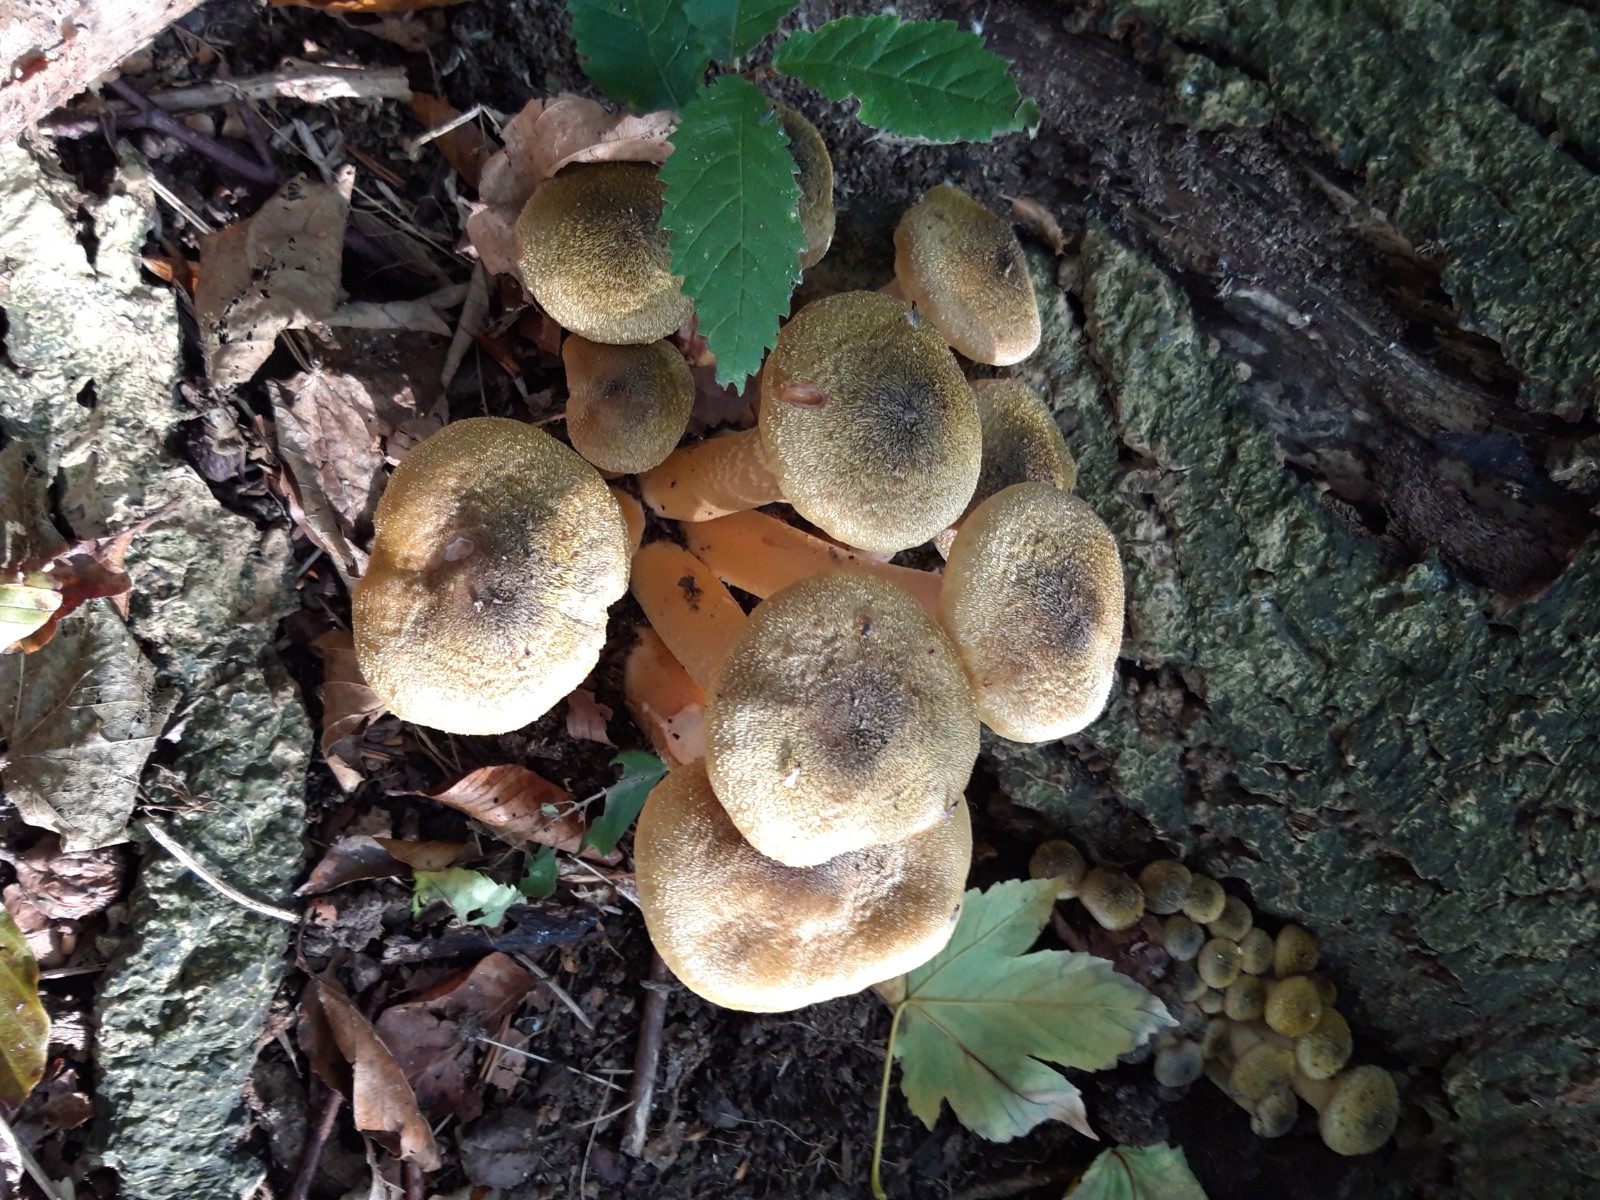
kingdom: Fungi
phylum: Basidiomycota
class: Agaricomycetes
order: Agaricales
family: Physalacriaceae
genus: Armillaria
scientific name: Armillaria mellea
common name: ægte honningsvamp
